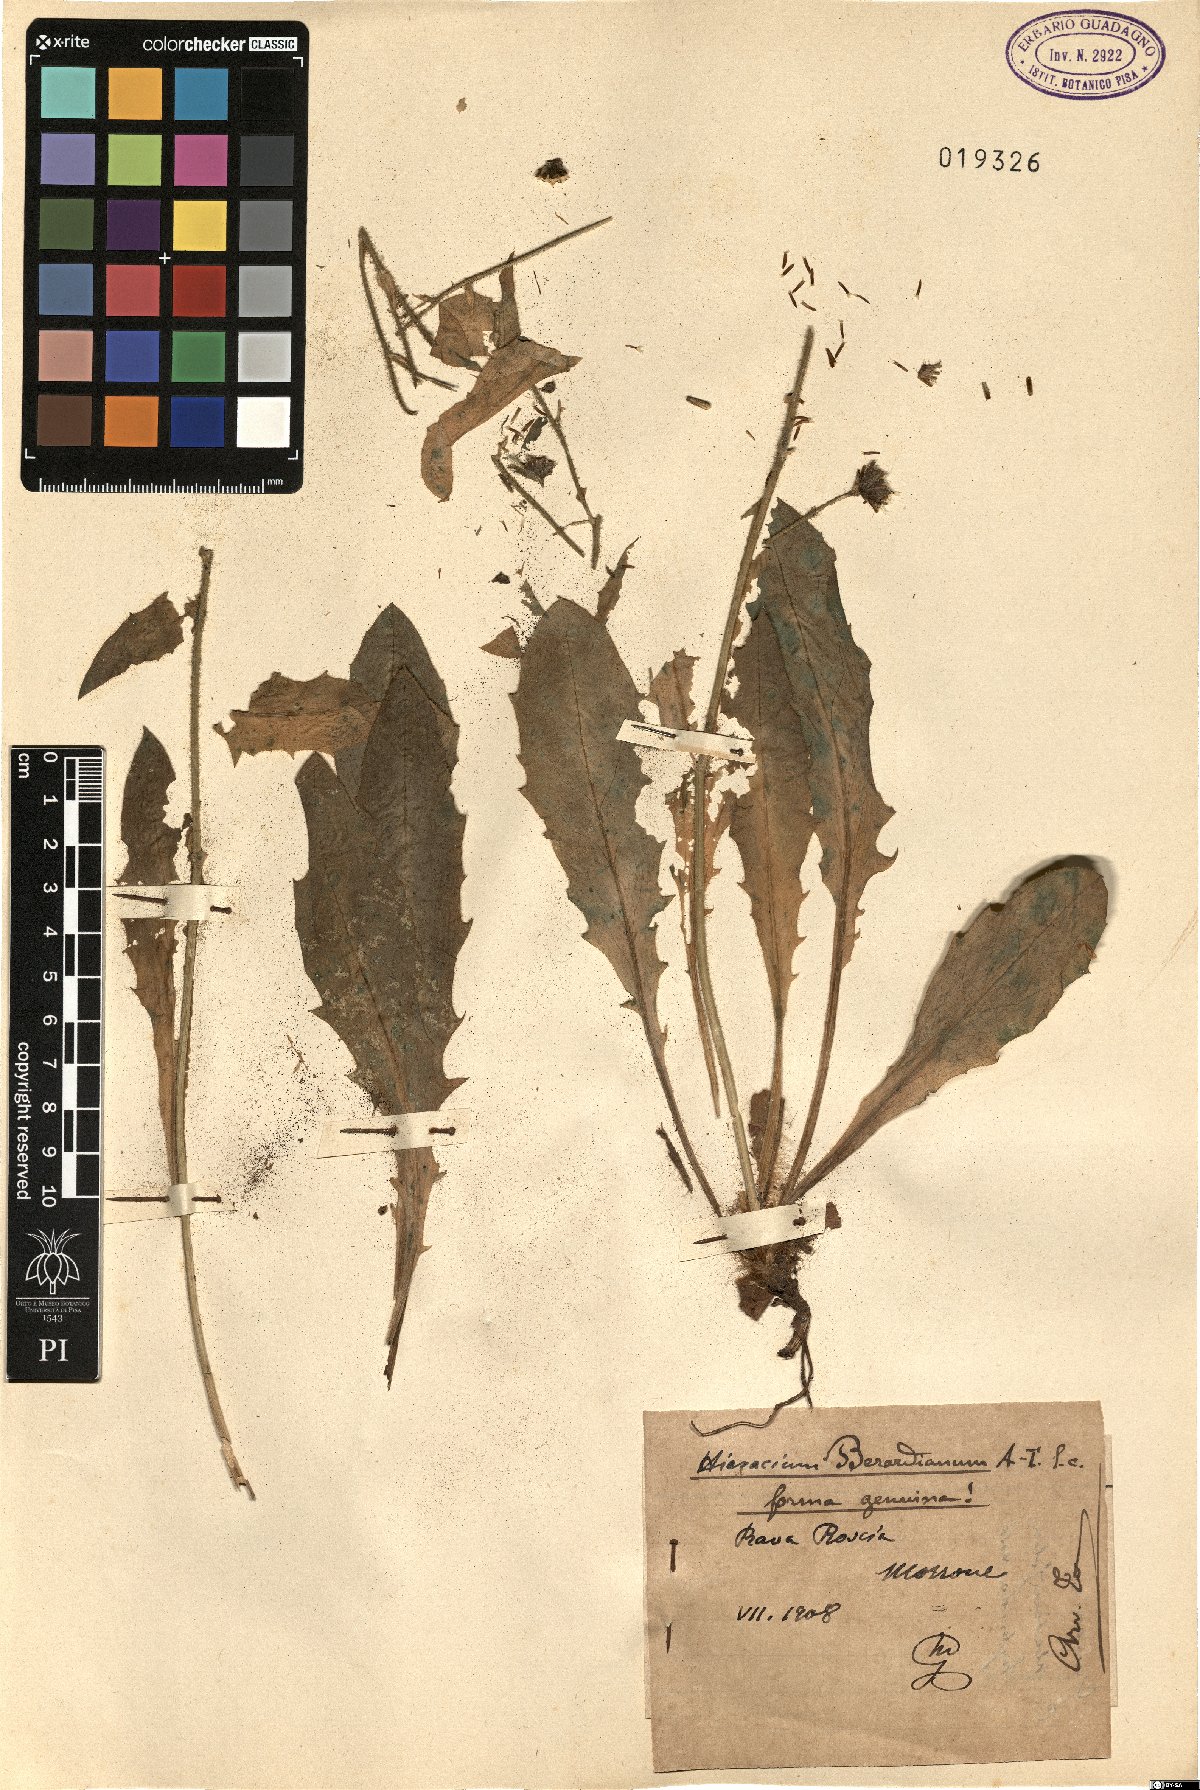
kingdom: Plantae
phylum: Tracheophyta
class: Magnoliopsida
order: Asterales
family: Asteraceae
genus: Hieracium
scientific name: Hieracium amplexicaule
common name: Sticky hawkweed
